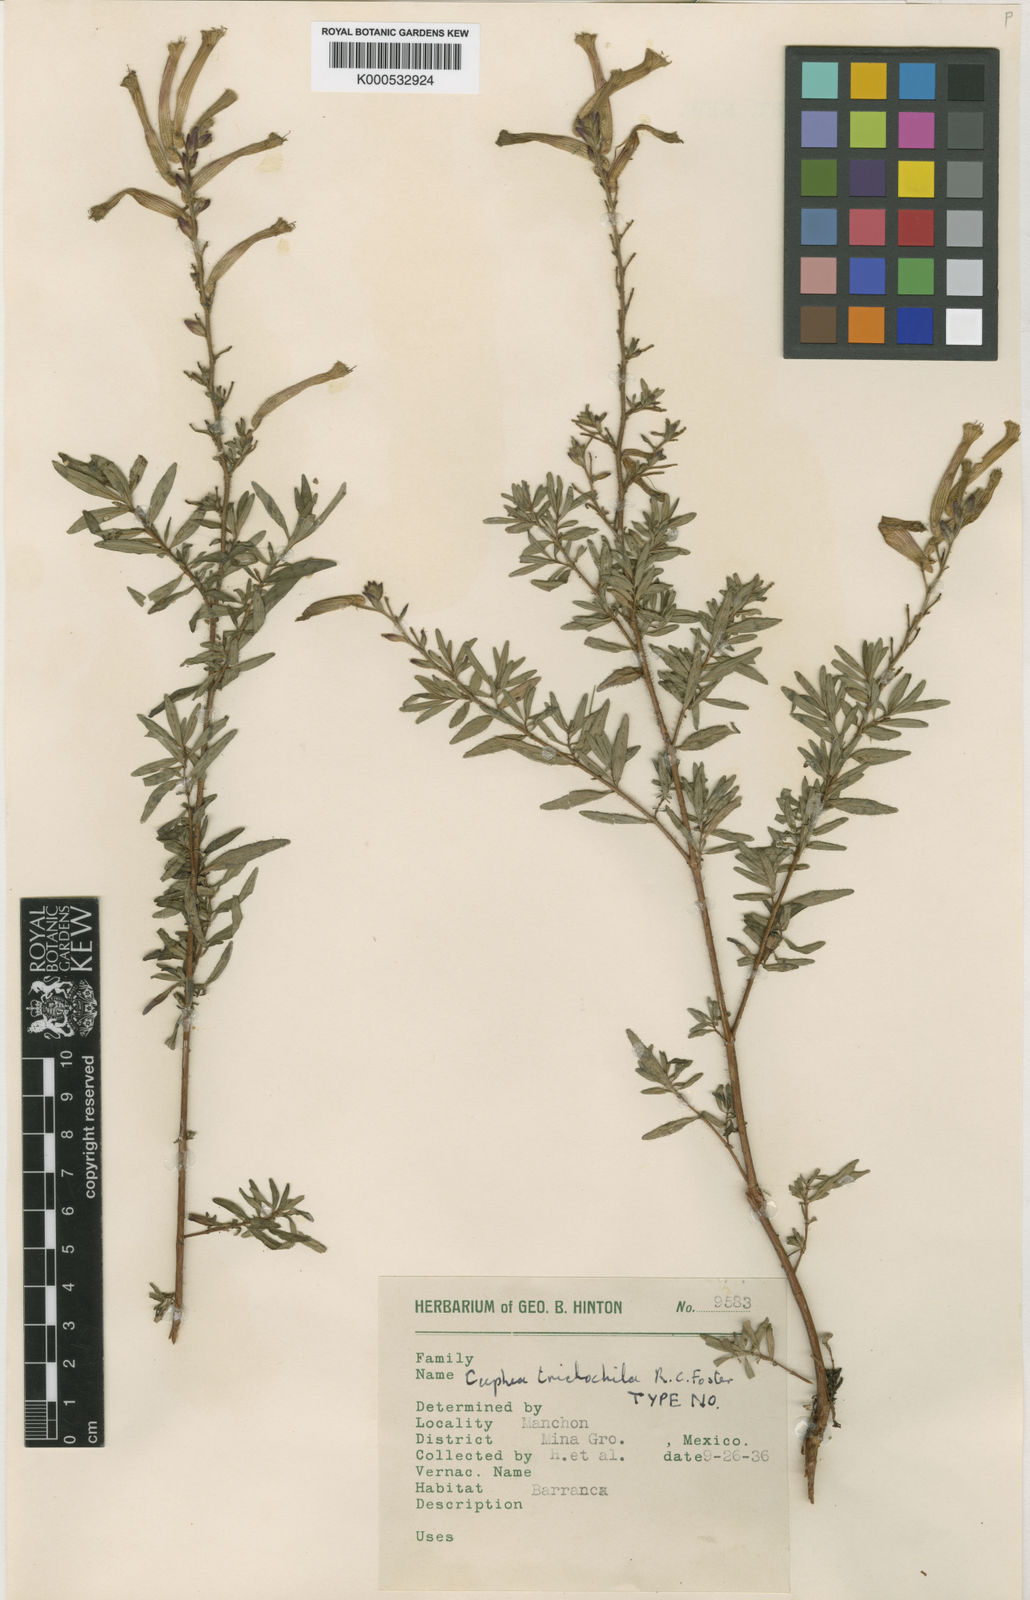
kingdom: Plantae
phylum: Tracheophyta
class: Magnoliopsida
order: Myrtales
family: Lythraceae
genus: Cuphea
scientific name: Cuphea trichochila
